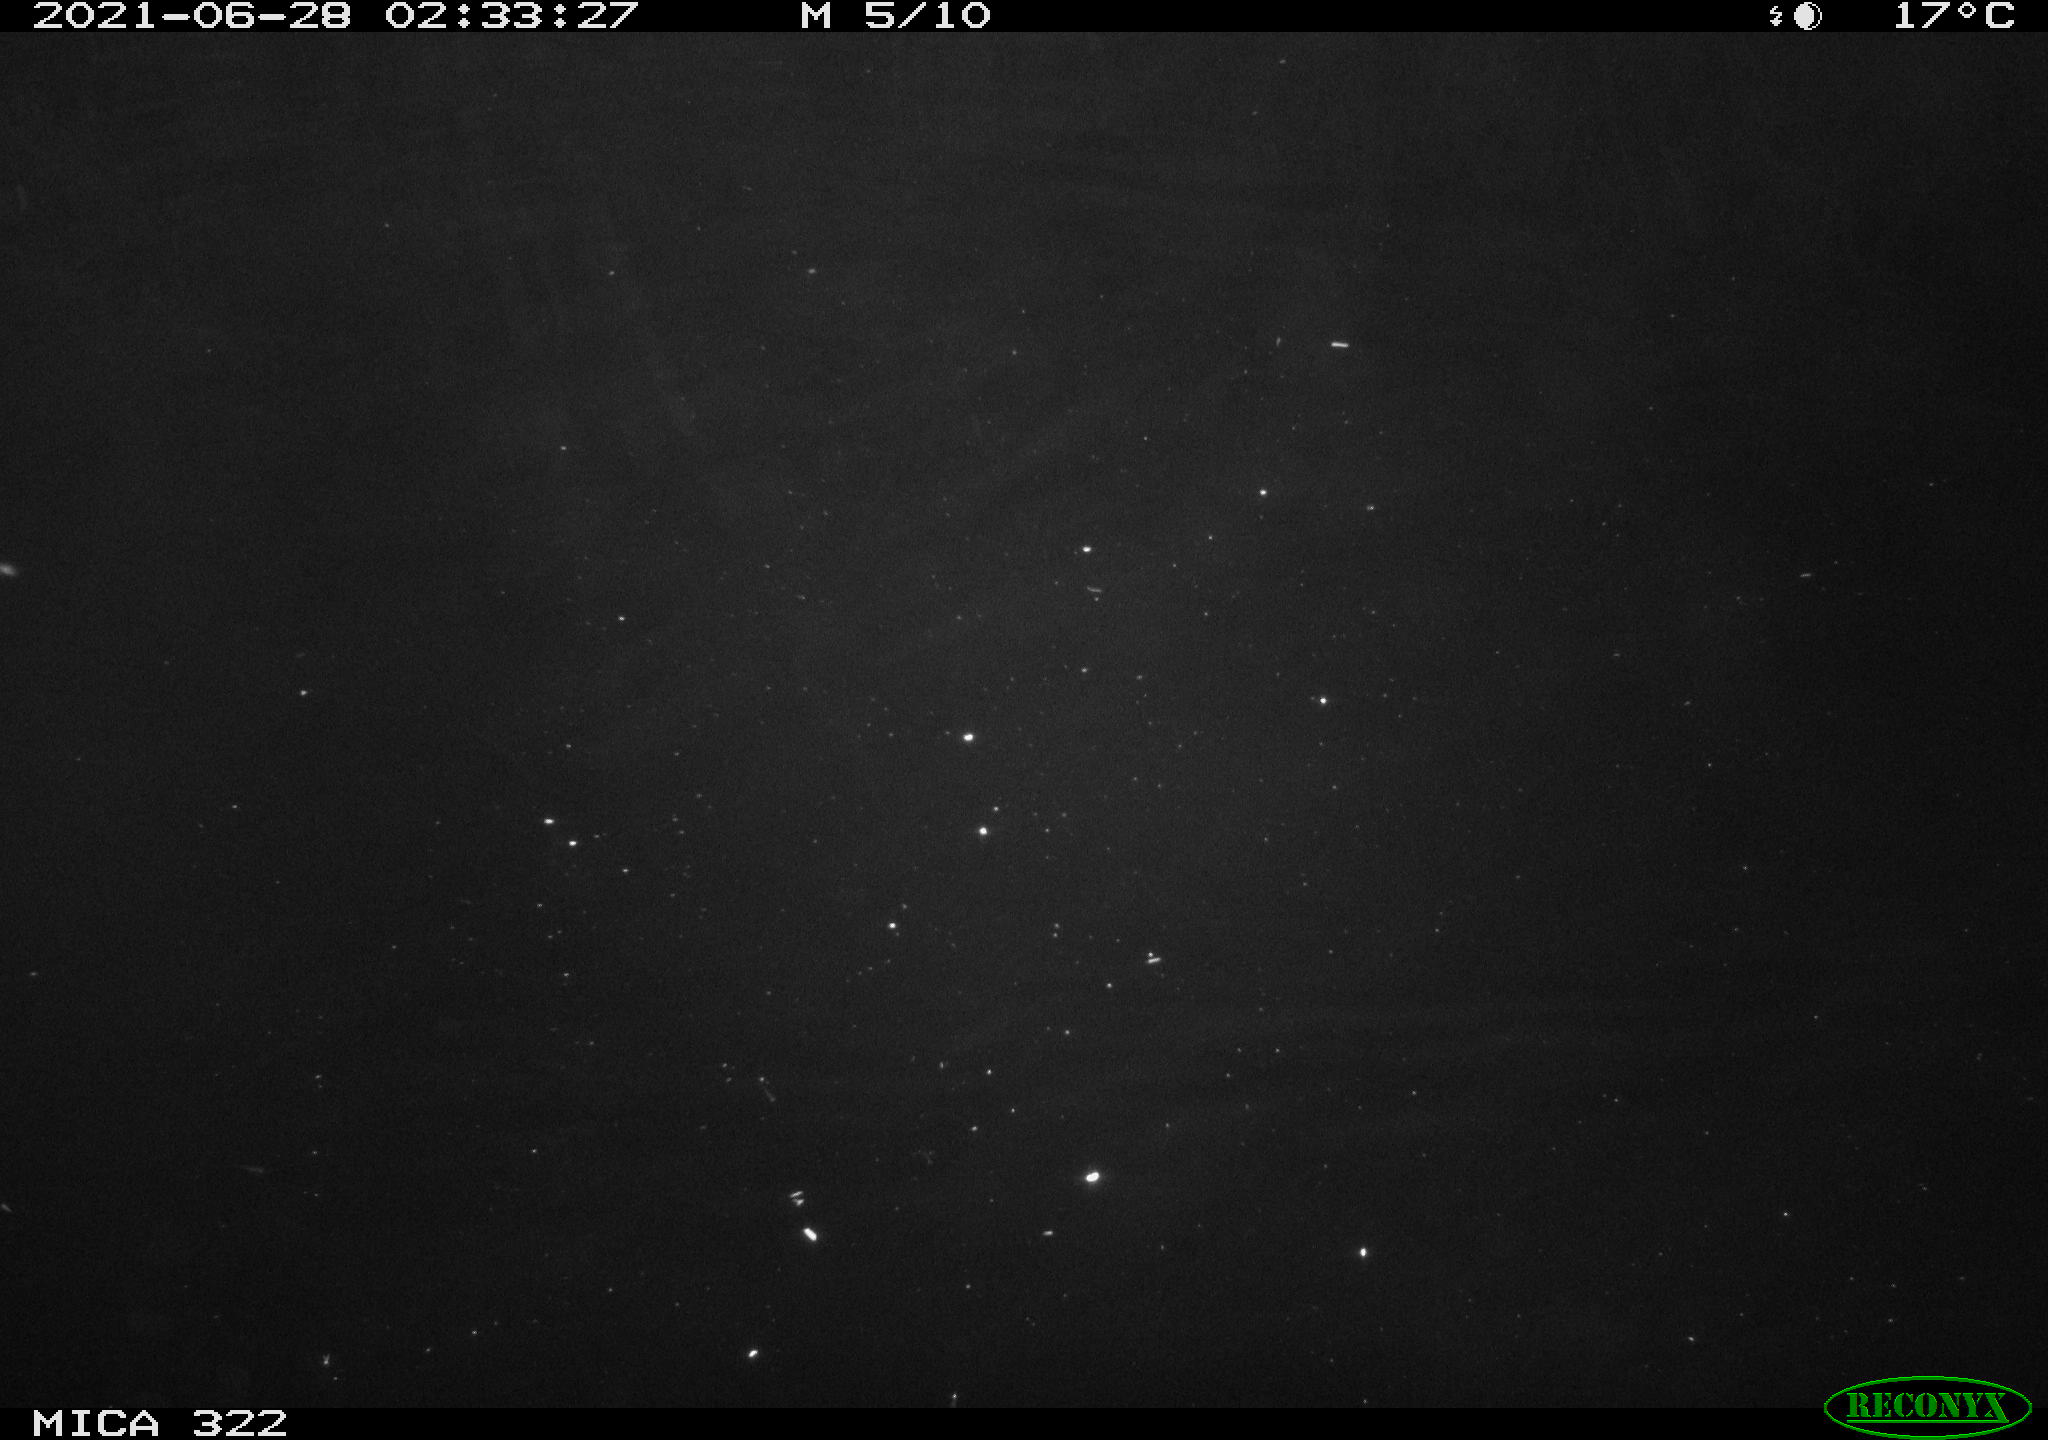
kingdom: Animalia
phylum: Chordata
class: Mammalia
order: Rodentia
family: Muridae
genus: Rattus
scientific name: Rattus norvegicus
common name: Brown rat
